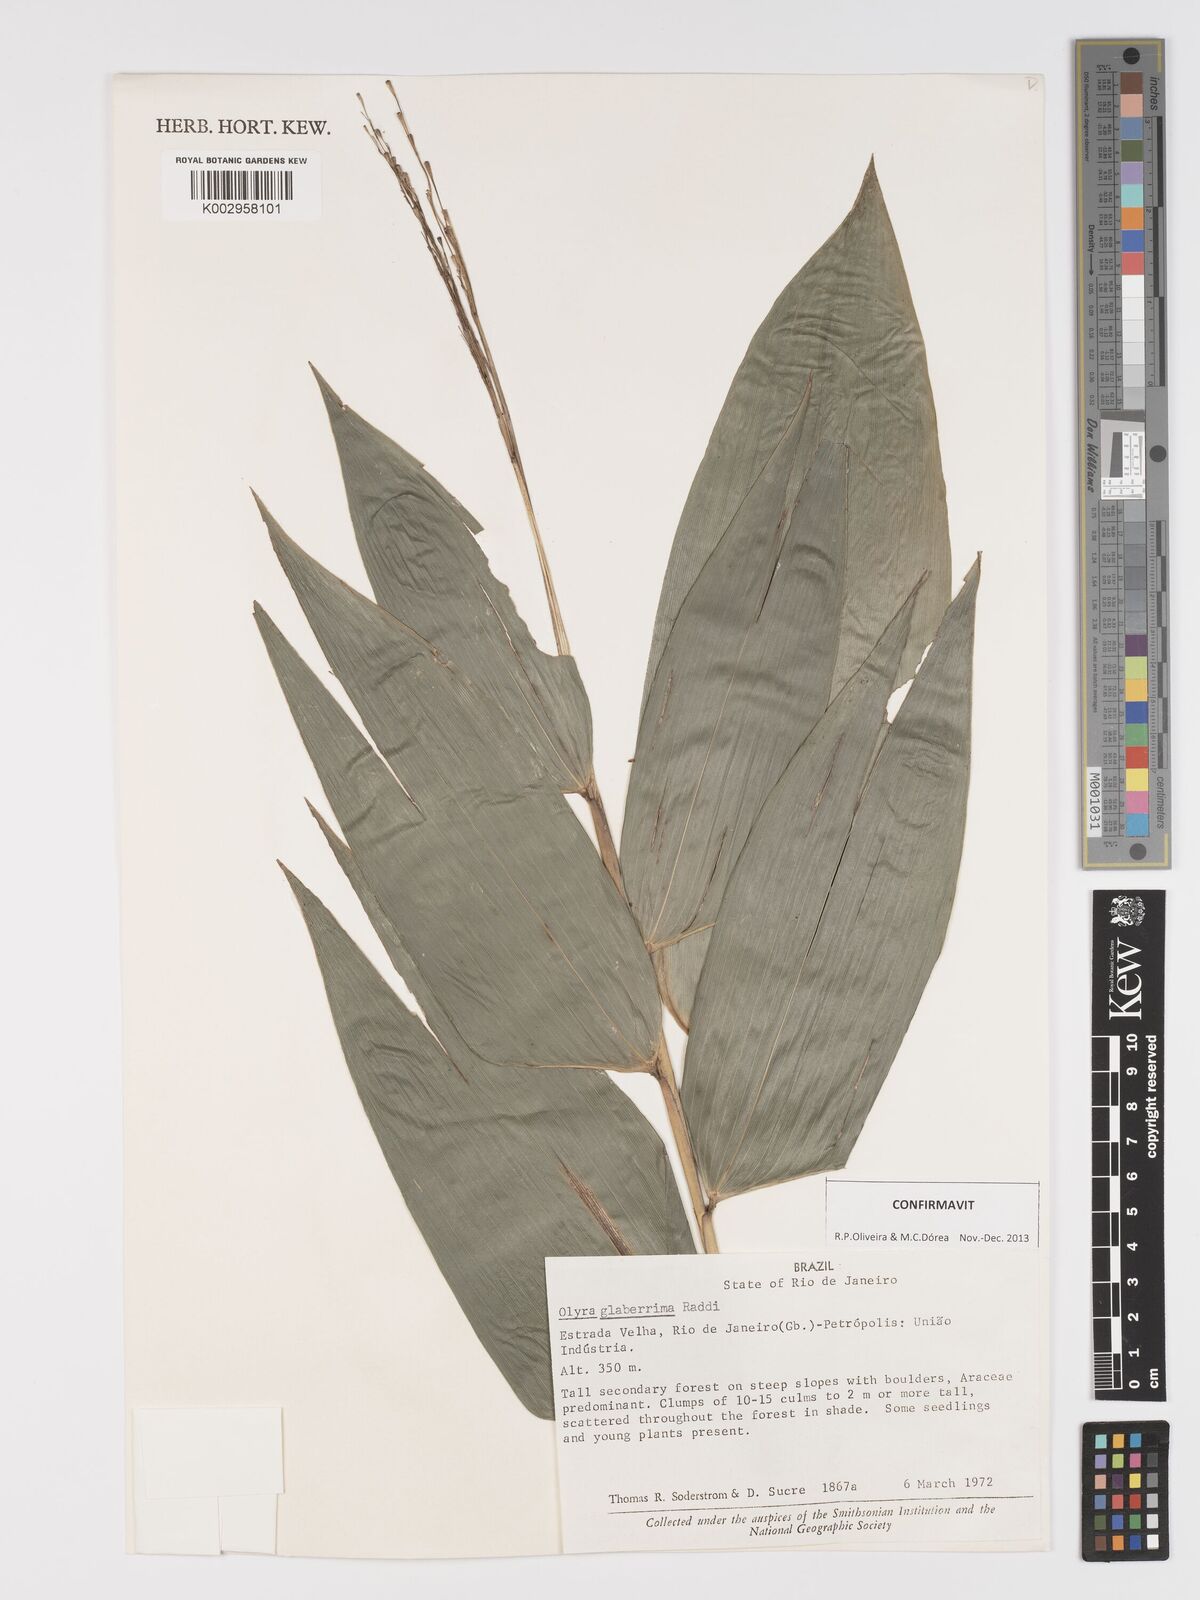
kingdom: Plantae
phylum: Tracheophyta
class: Liliopsida
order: Poales
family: Poaceae
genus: Olyra
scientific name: Olyra glaberrima
